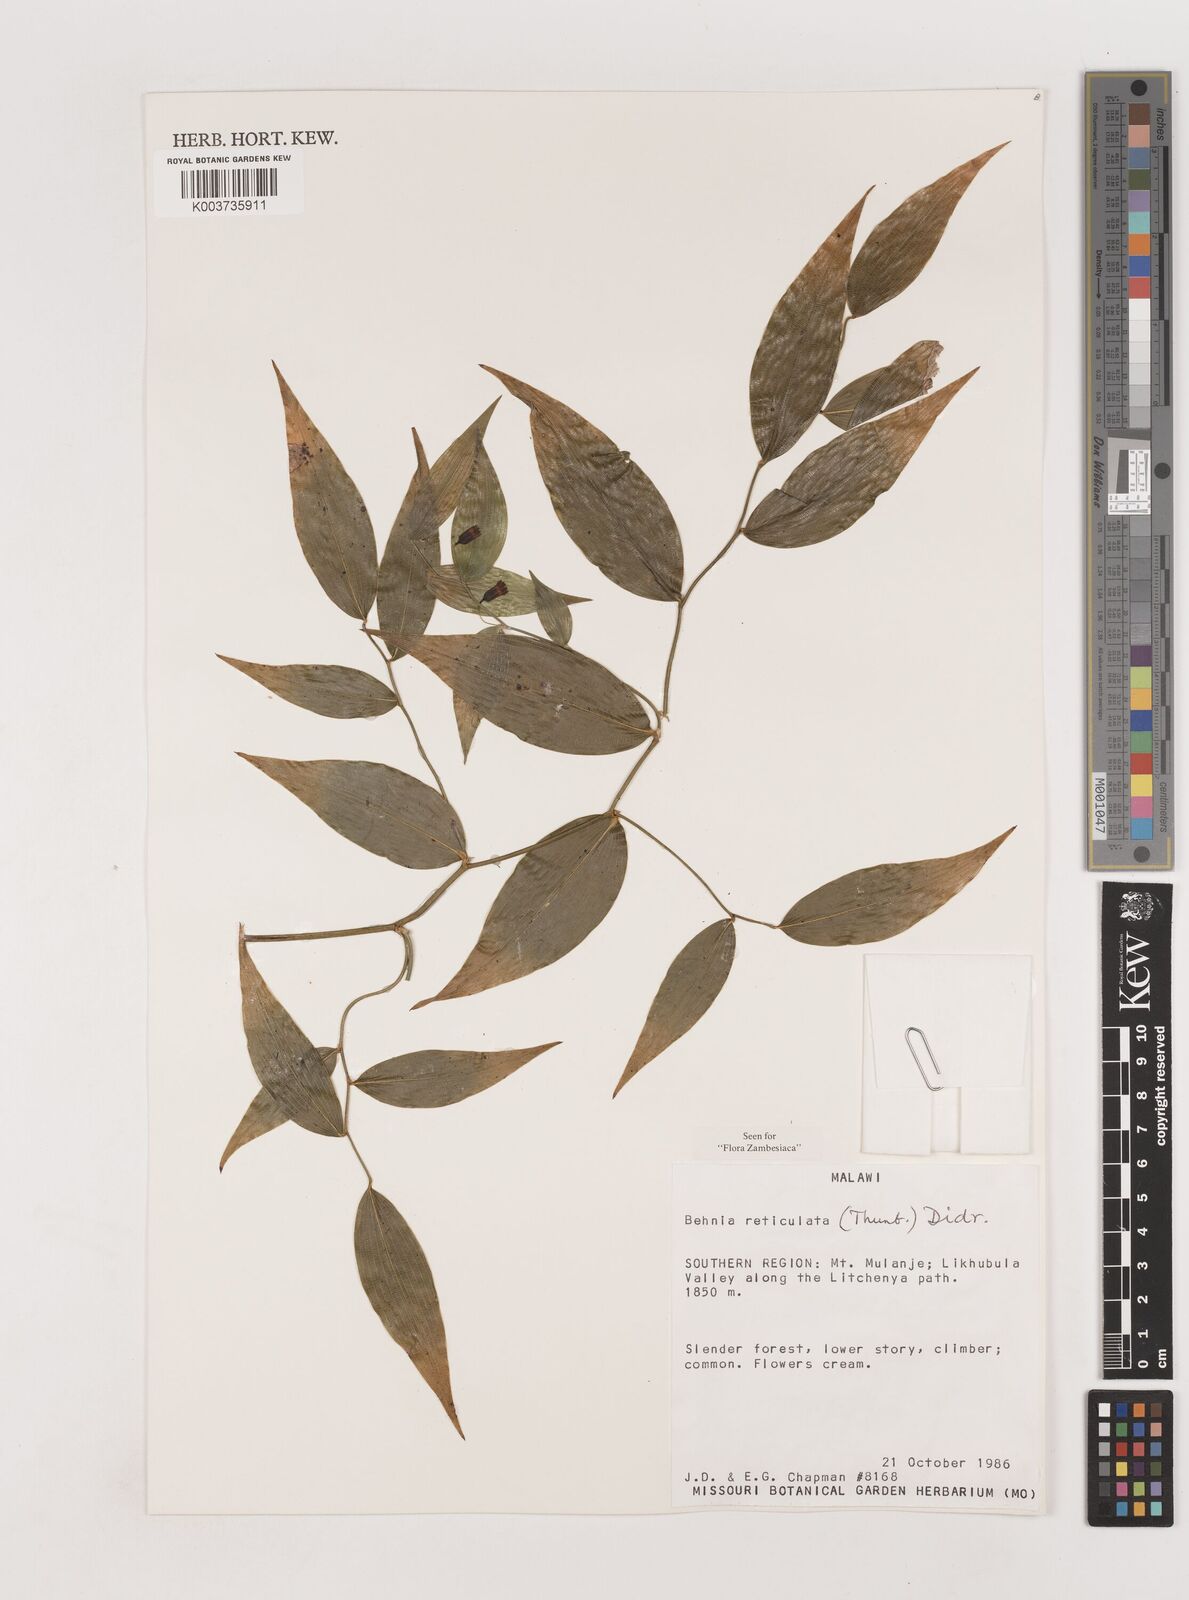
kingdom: Plantae
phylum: Tracheophyta
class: Liliopsida
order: Asparagales
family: Asparagaceae
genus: Behnia
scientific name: Behnia reticulata
